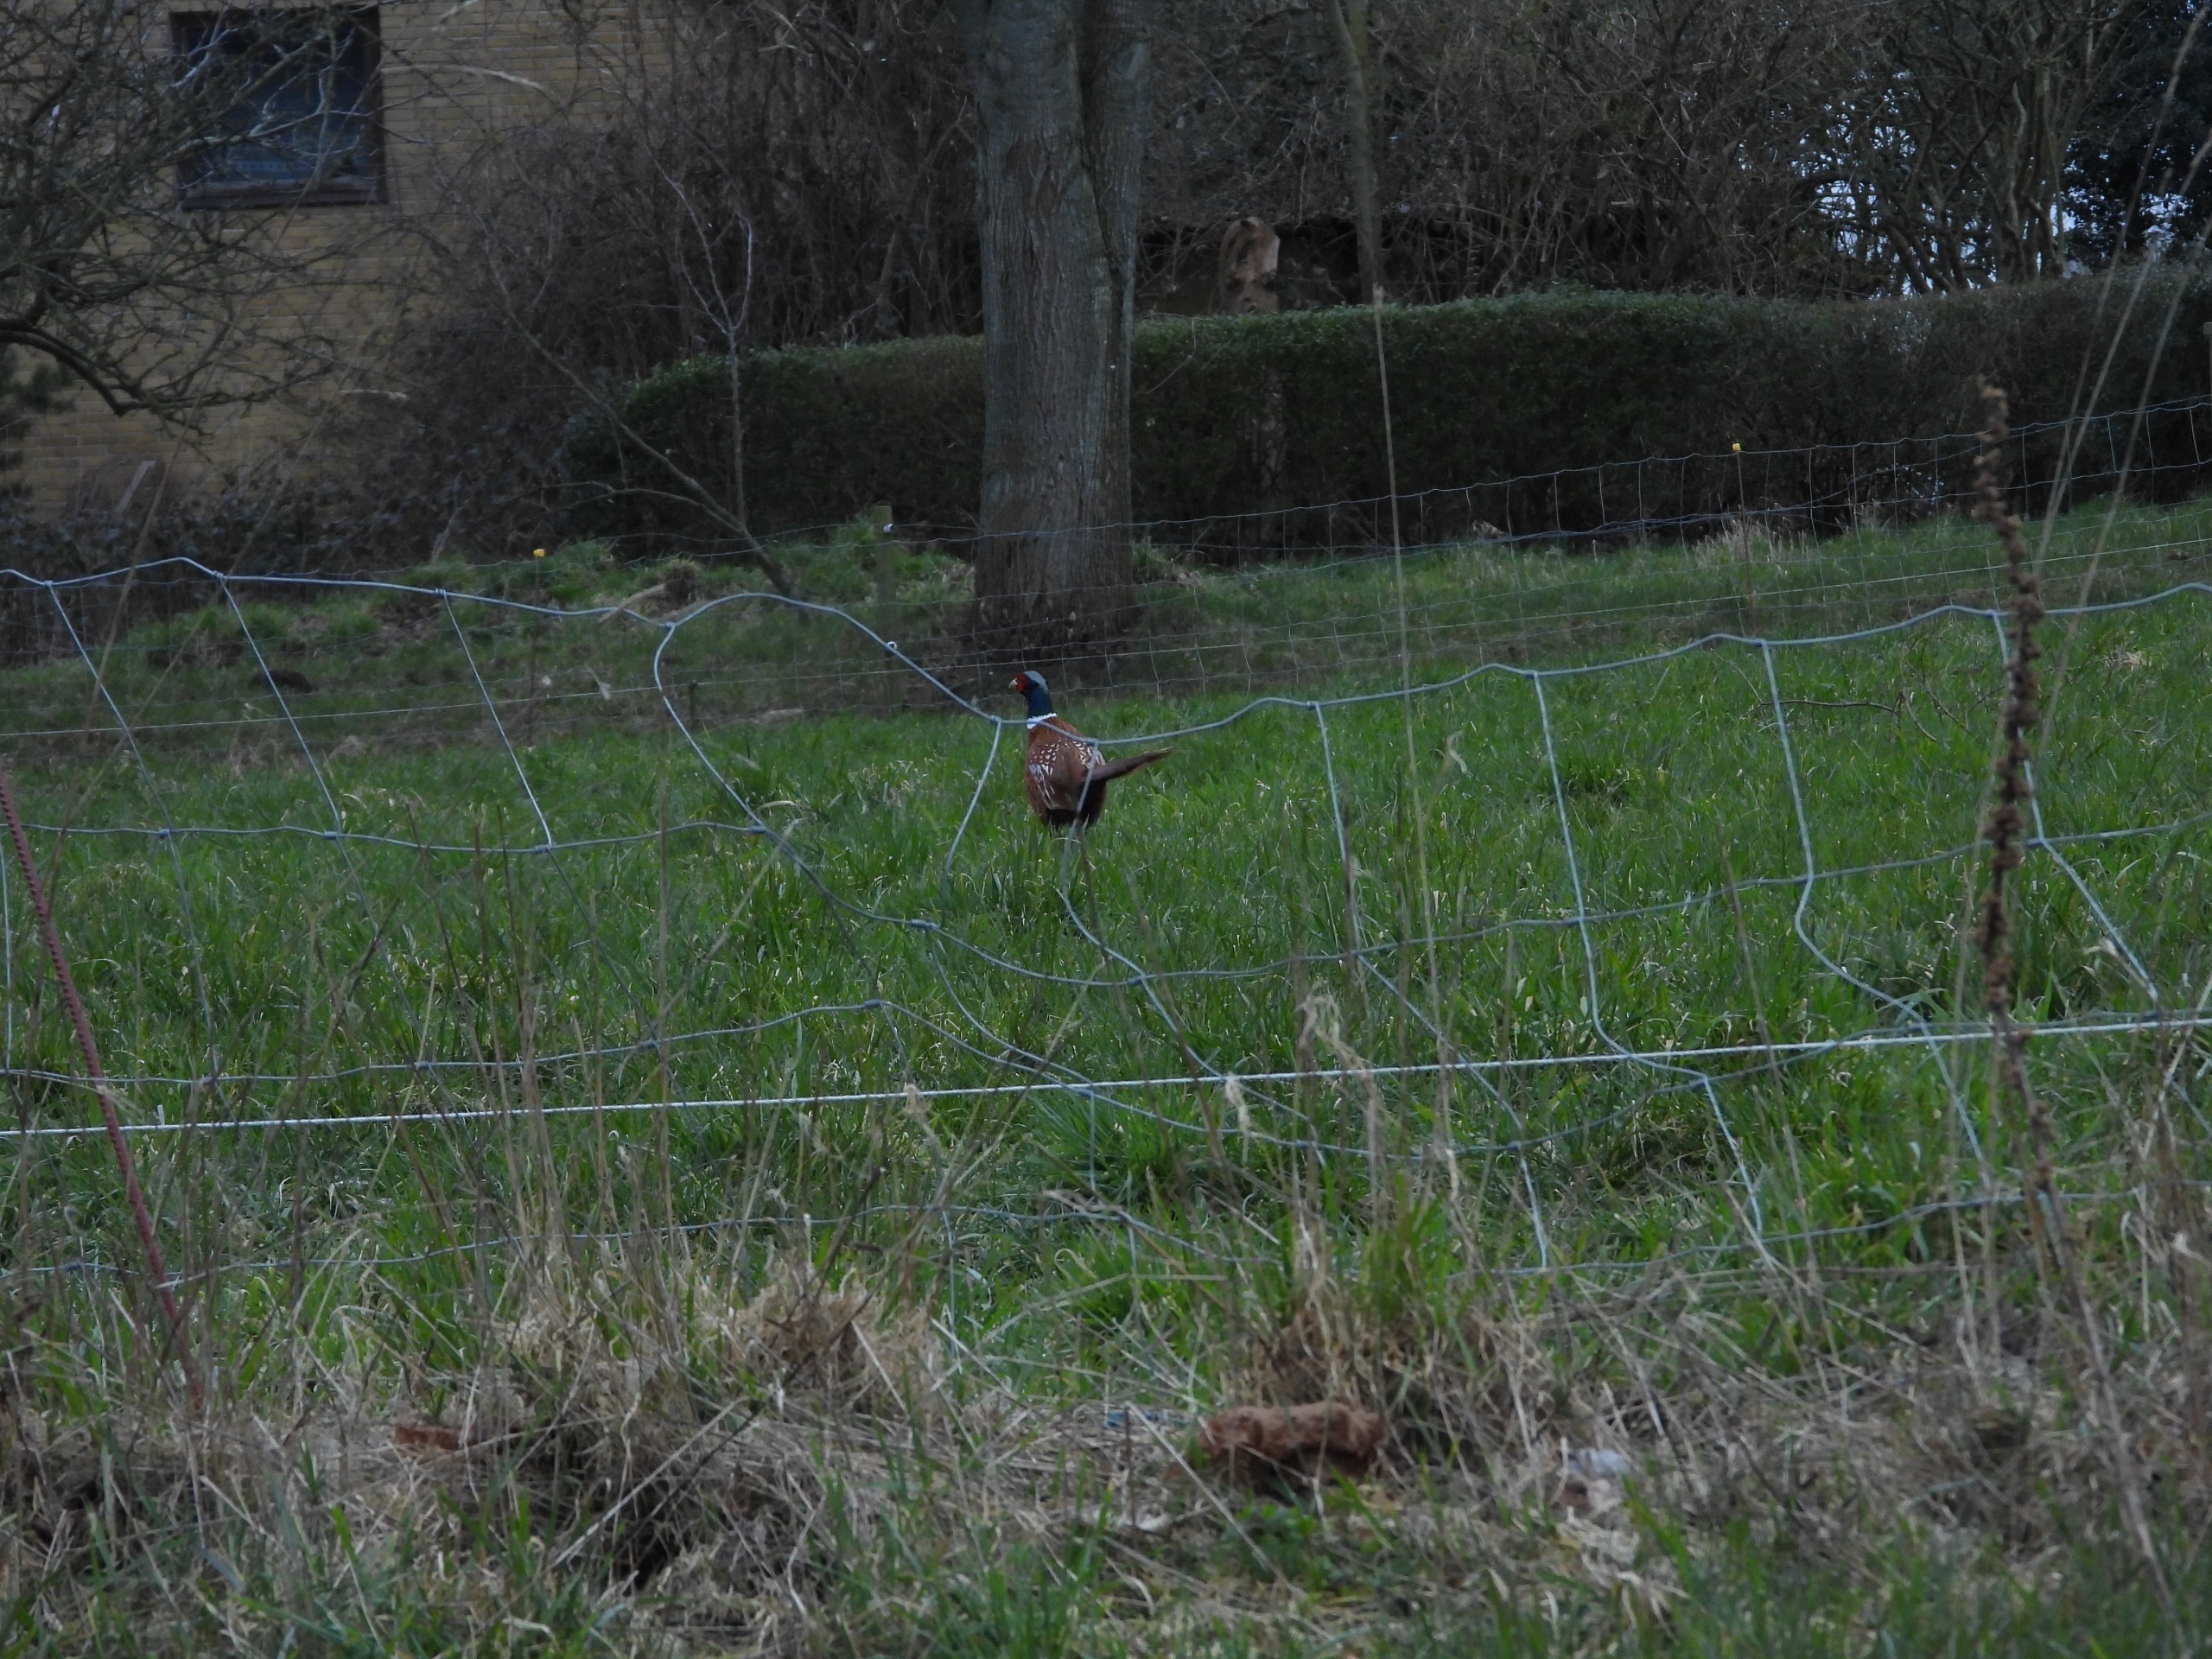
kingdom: Animalia
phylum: Chordata
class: Aves
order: Galliformes
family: Phasianidae
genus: Phasianus
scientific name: Phasianus colchicus
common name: Fasan
